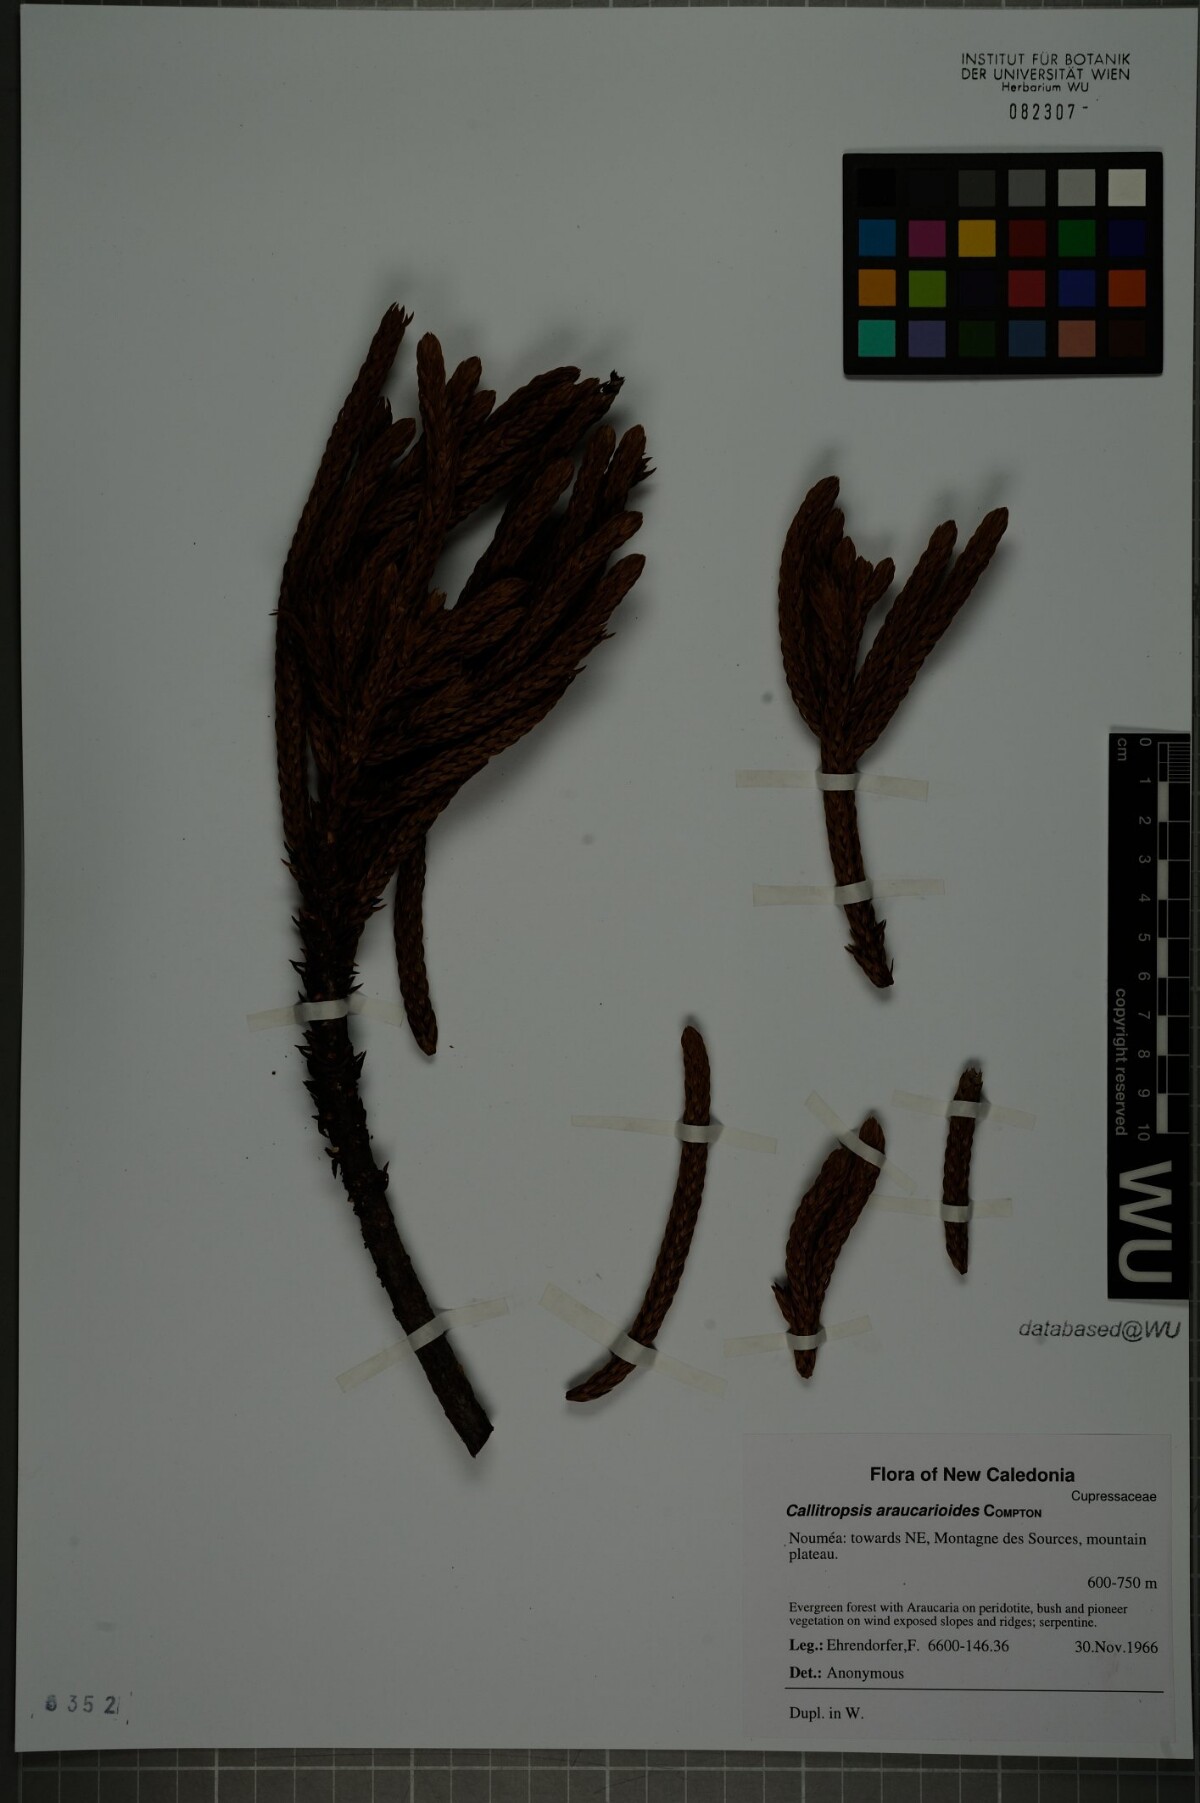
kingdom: Plantae
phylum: Tracheophyta
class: Pinopsida
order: Pinales
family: Cupressaceae
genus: Neocallitropsis
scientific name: Neocallitropsis pancheri
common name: Pancher neocallitropsis
